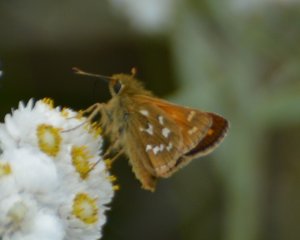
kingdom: Animalia
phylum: Arthropoda
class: Insecta
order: Lepidoptera
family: Hesperiidae
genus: Hesperia
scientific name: Hesperia comma
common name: Common Branded Skipper
